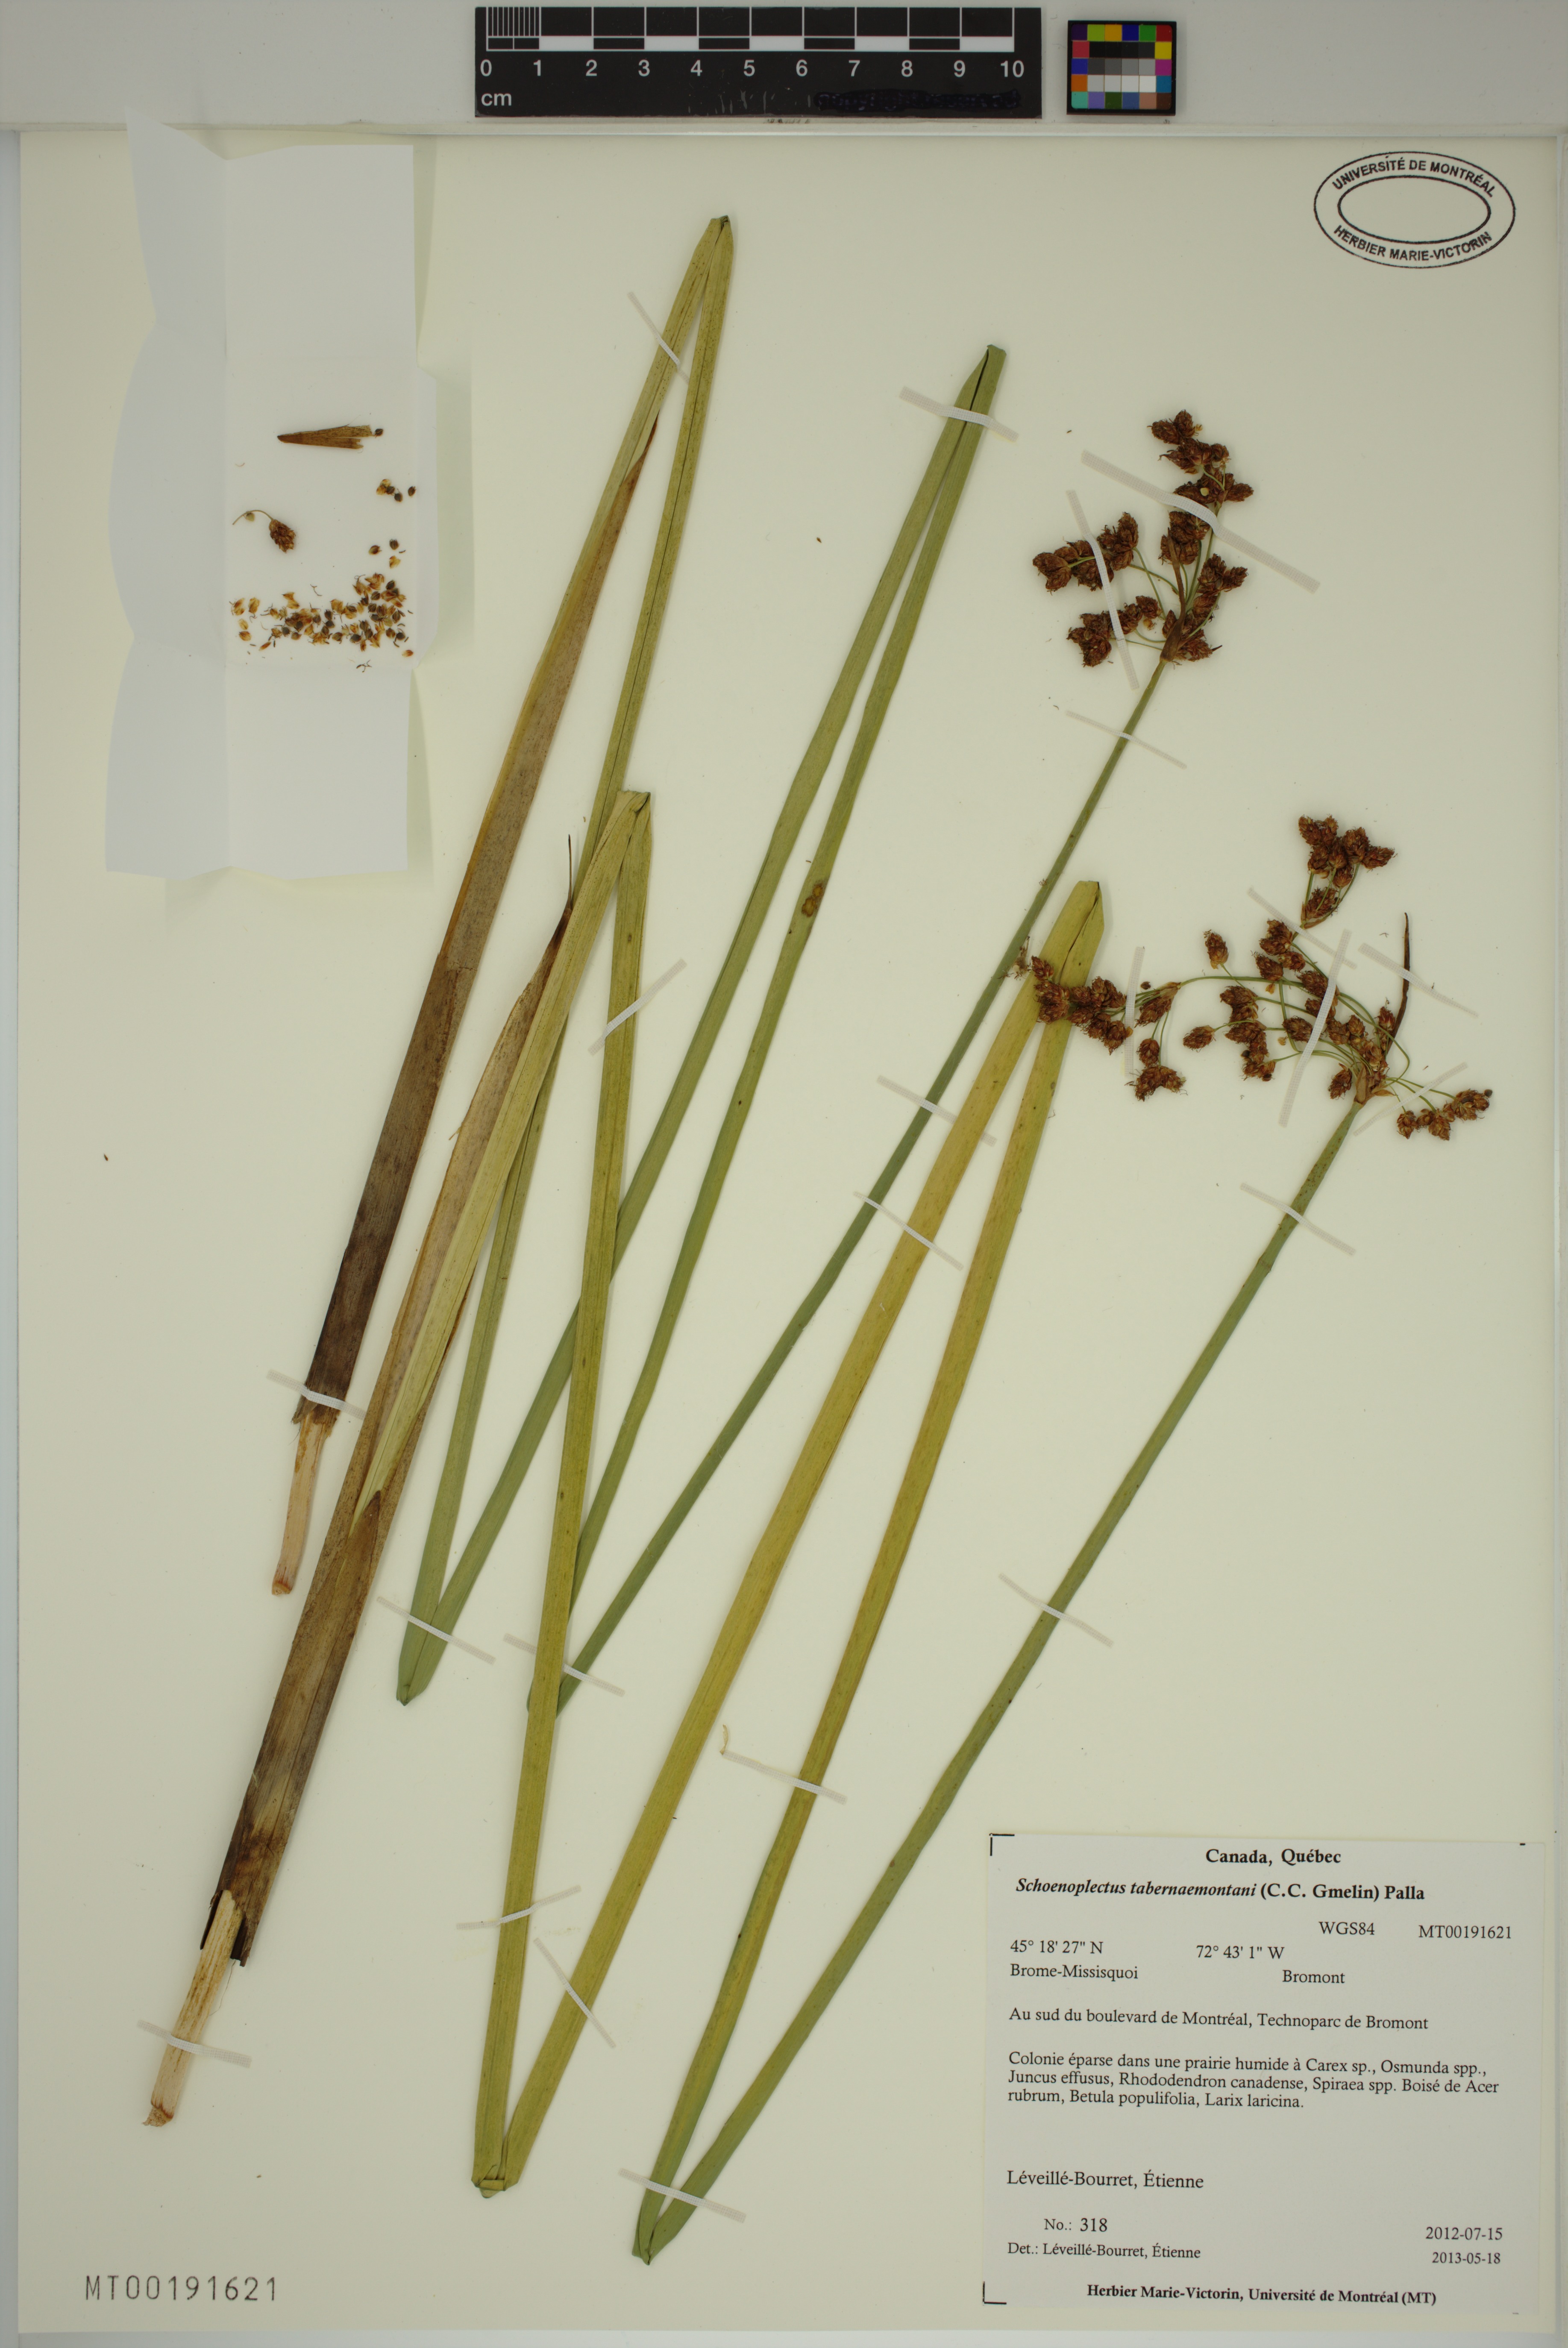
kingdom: Plantae
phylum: Tracheophyta
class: Liliopsida
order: Poales
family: Cyperaceae
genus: Schoenoplectus
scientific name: Schoenoplectus tabernaemontani
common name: Grey club-rush
